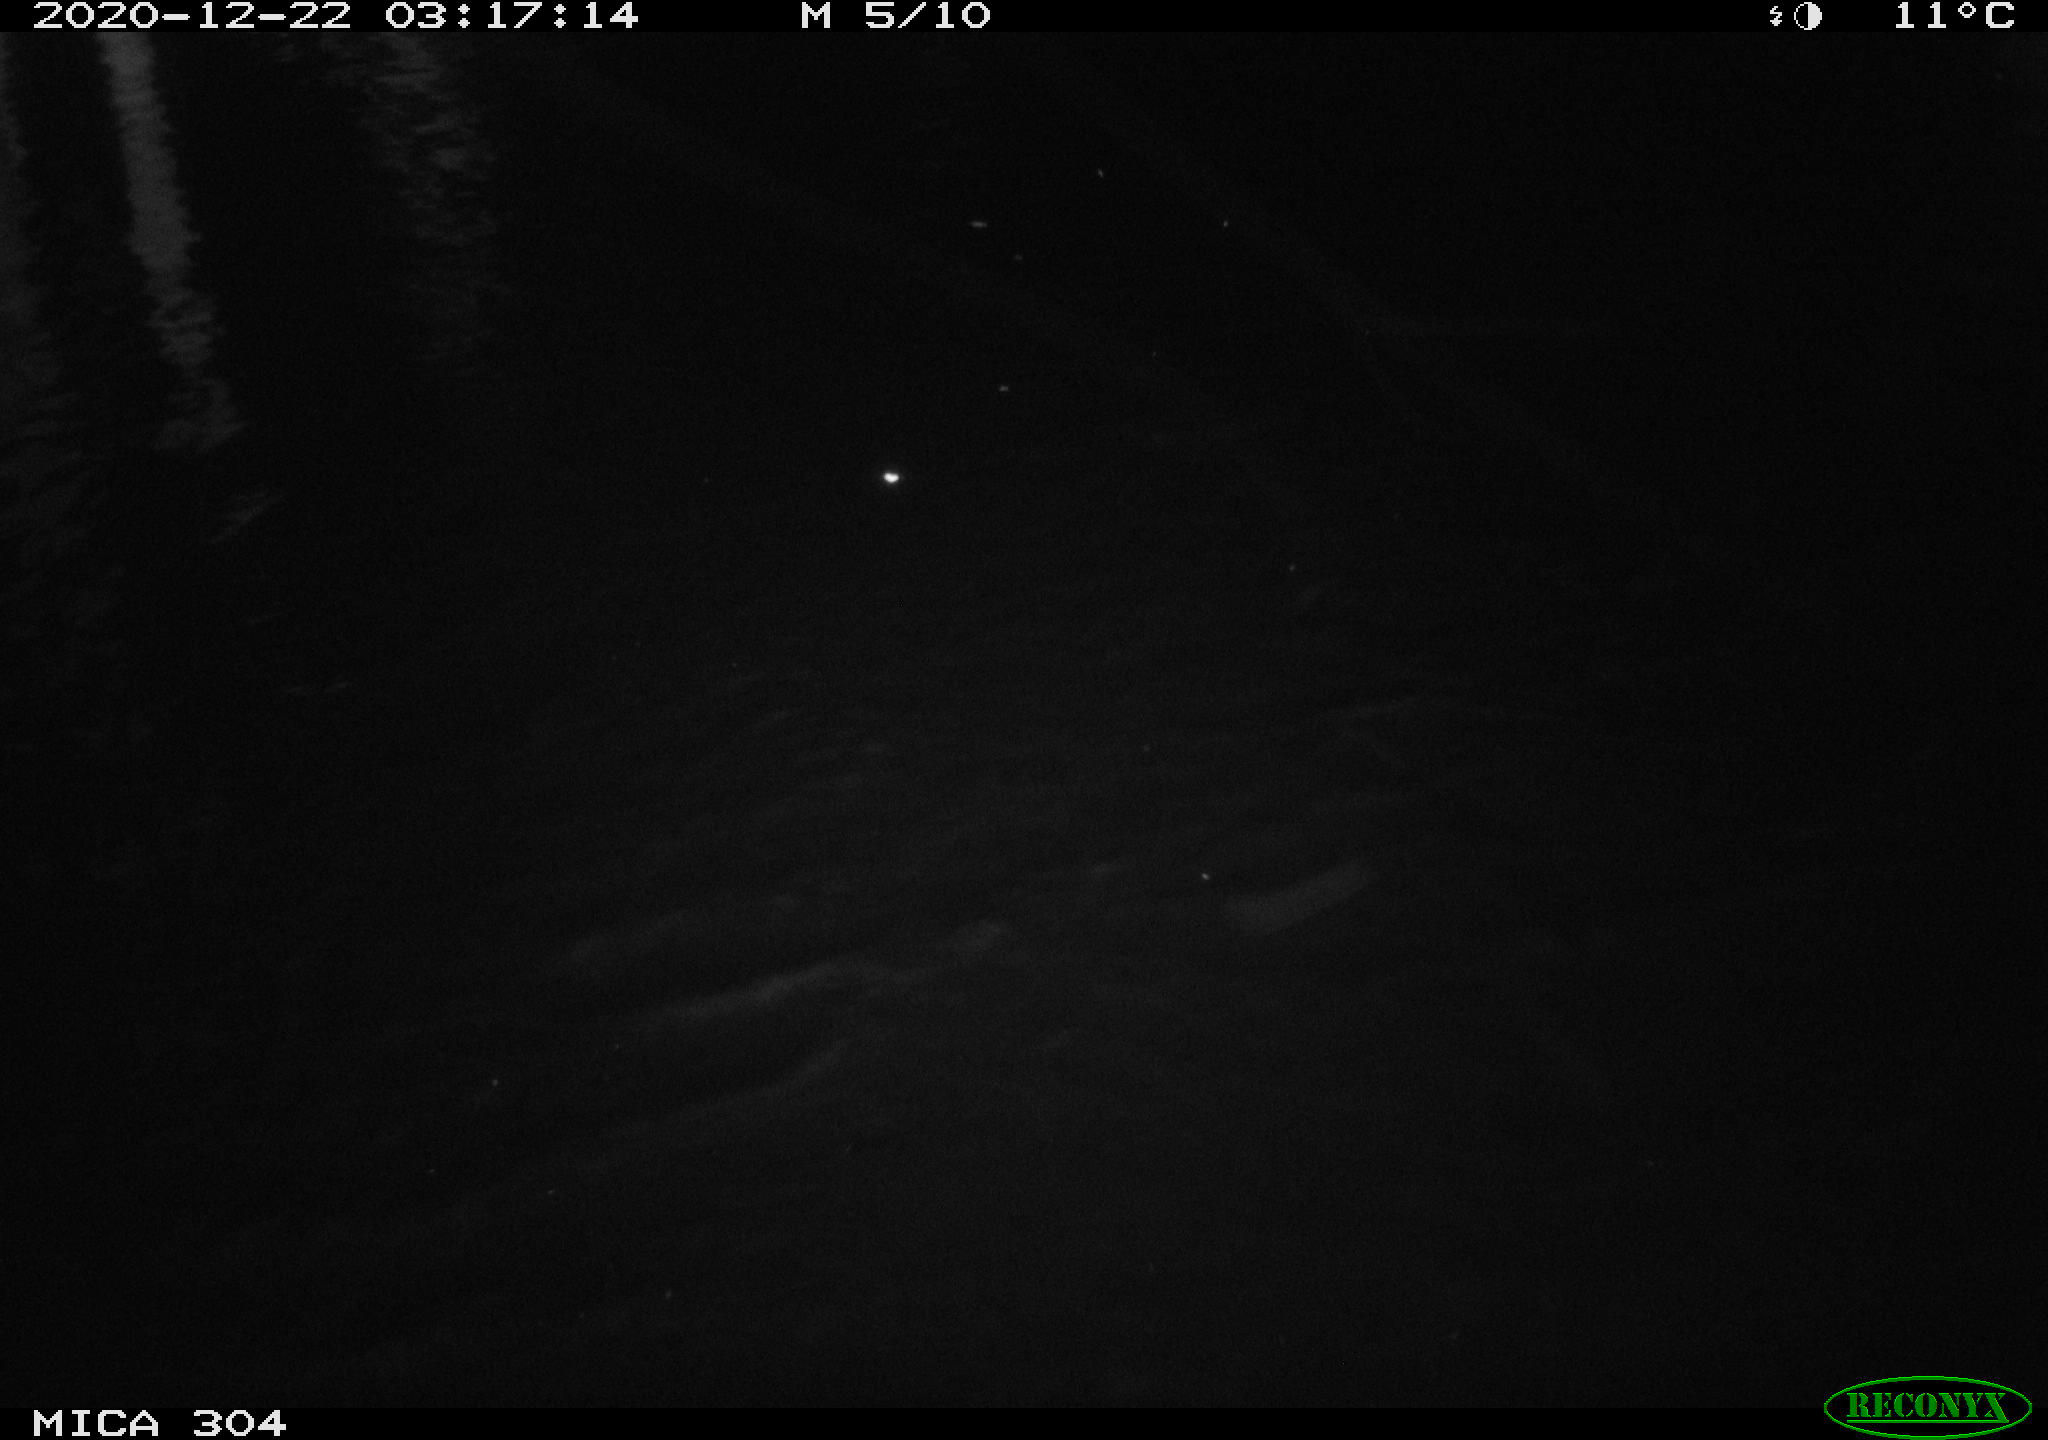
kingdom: Animalia
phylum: Chordata
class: Mammalia
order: Rodentia
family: Muridae
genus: Rattus
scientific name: Rattus norvegicus
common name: Brown rat
